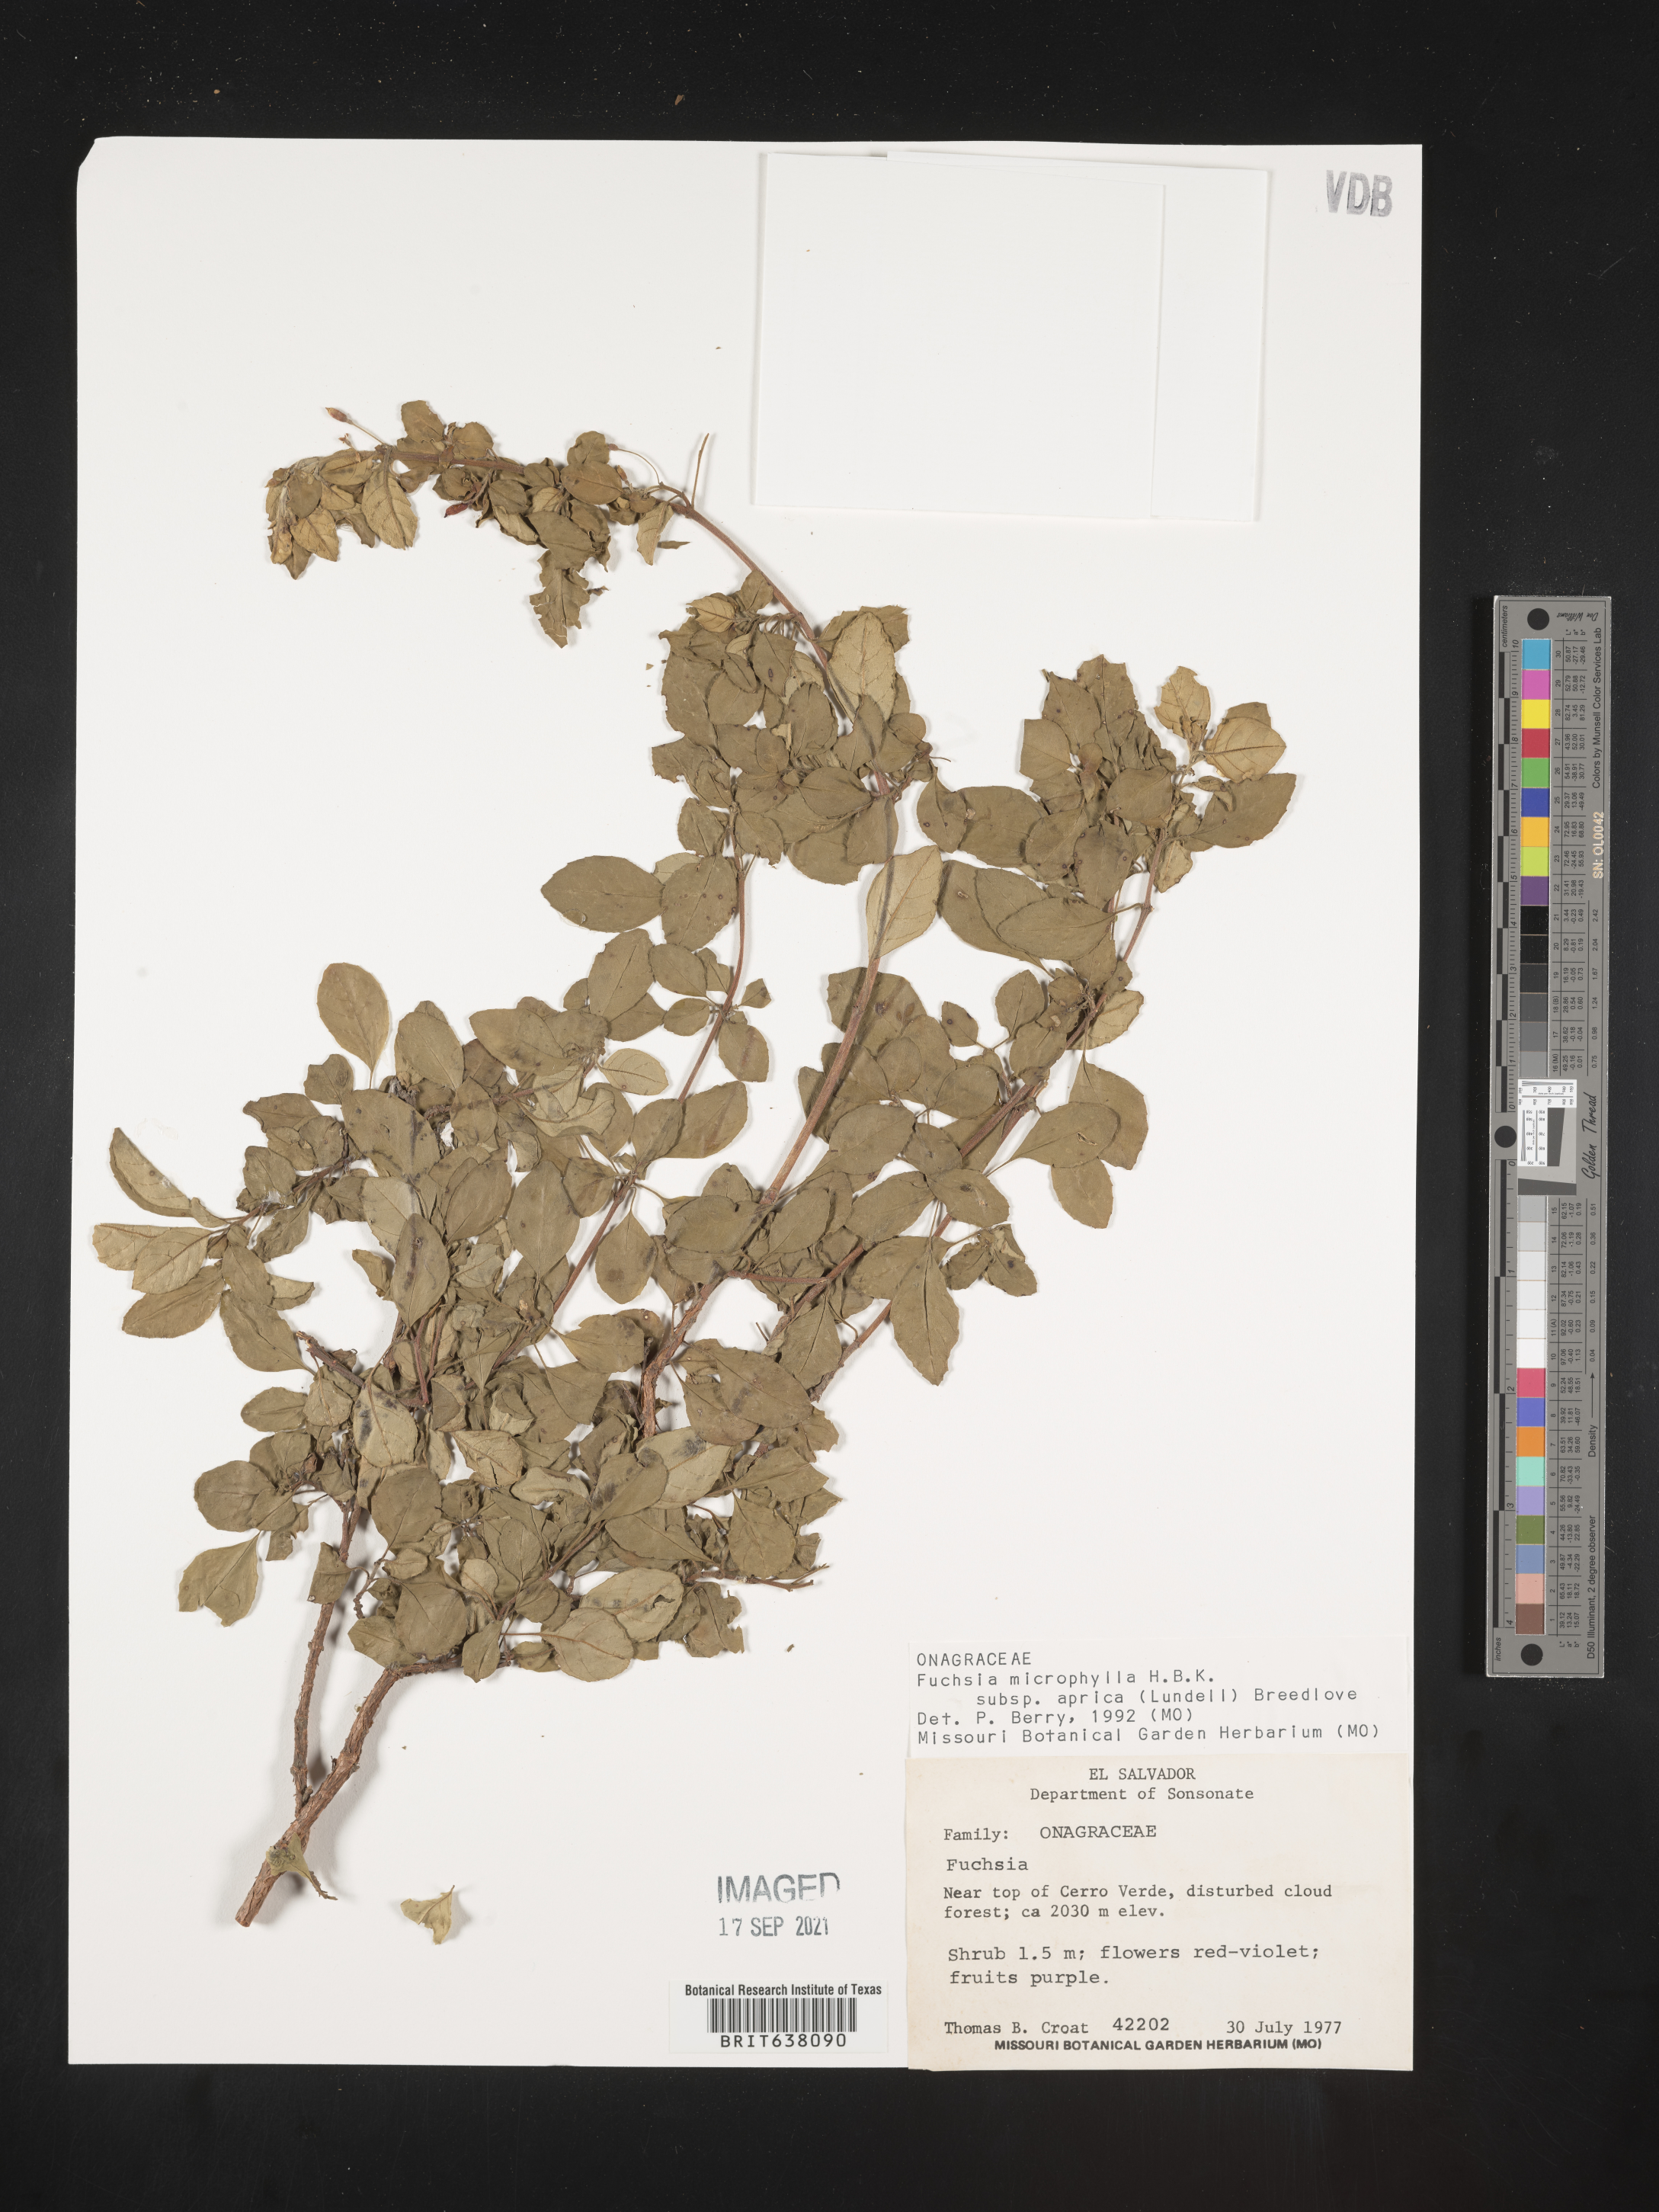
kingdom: Plantae
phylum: Tracheophyta
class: Magnoliopsida
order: Myrtales
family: Onagraceae
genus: Fuchsia
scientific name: Fuchsia
